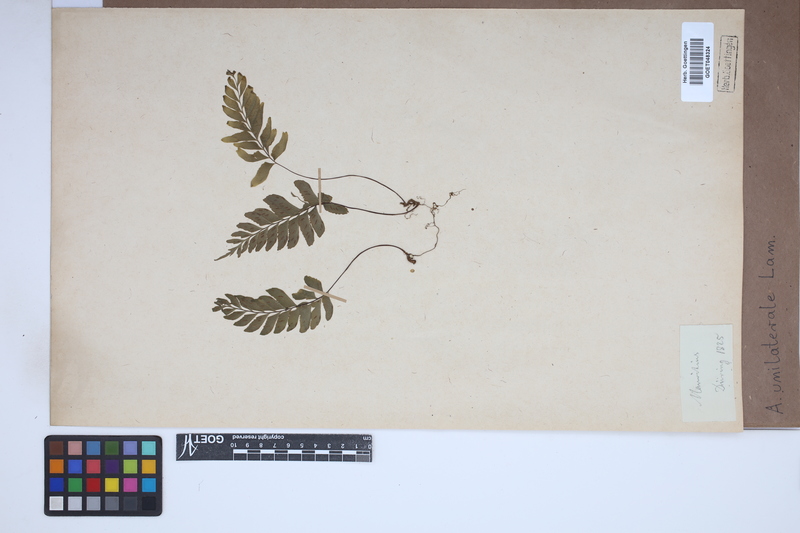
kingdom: Plantae
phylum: Tracheophyta
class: Polypodiopsida
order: Polypodiales
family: Aspleniaceae
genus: Hymenasplenium
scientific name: Hymenasplenium unilaterale
